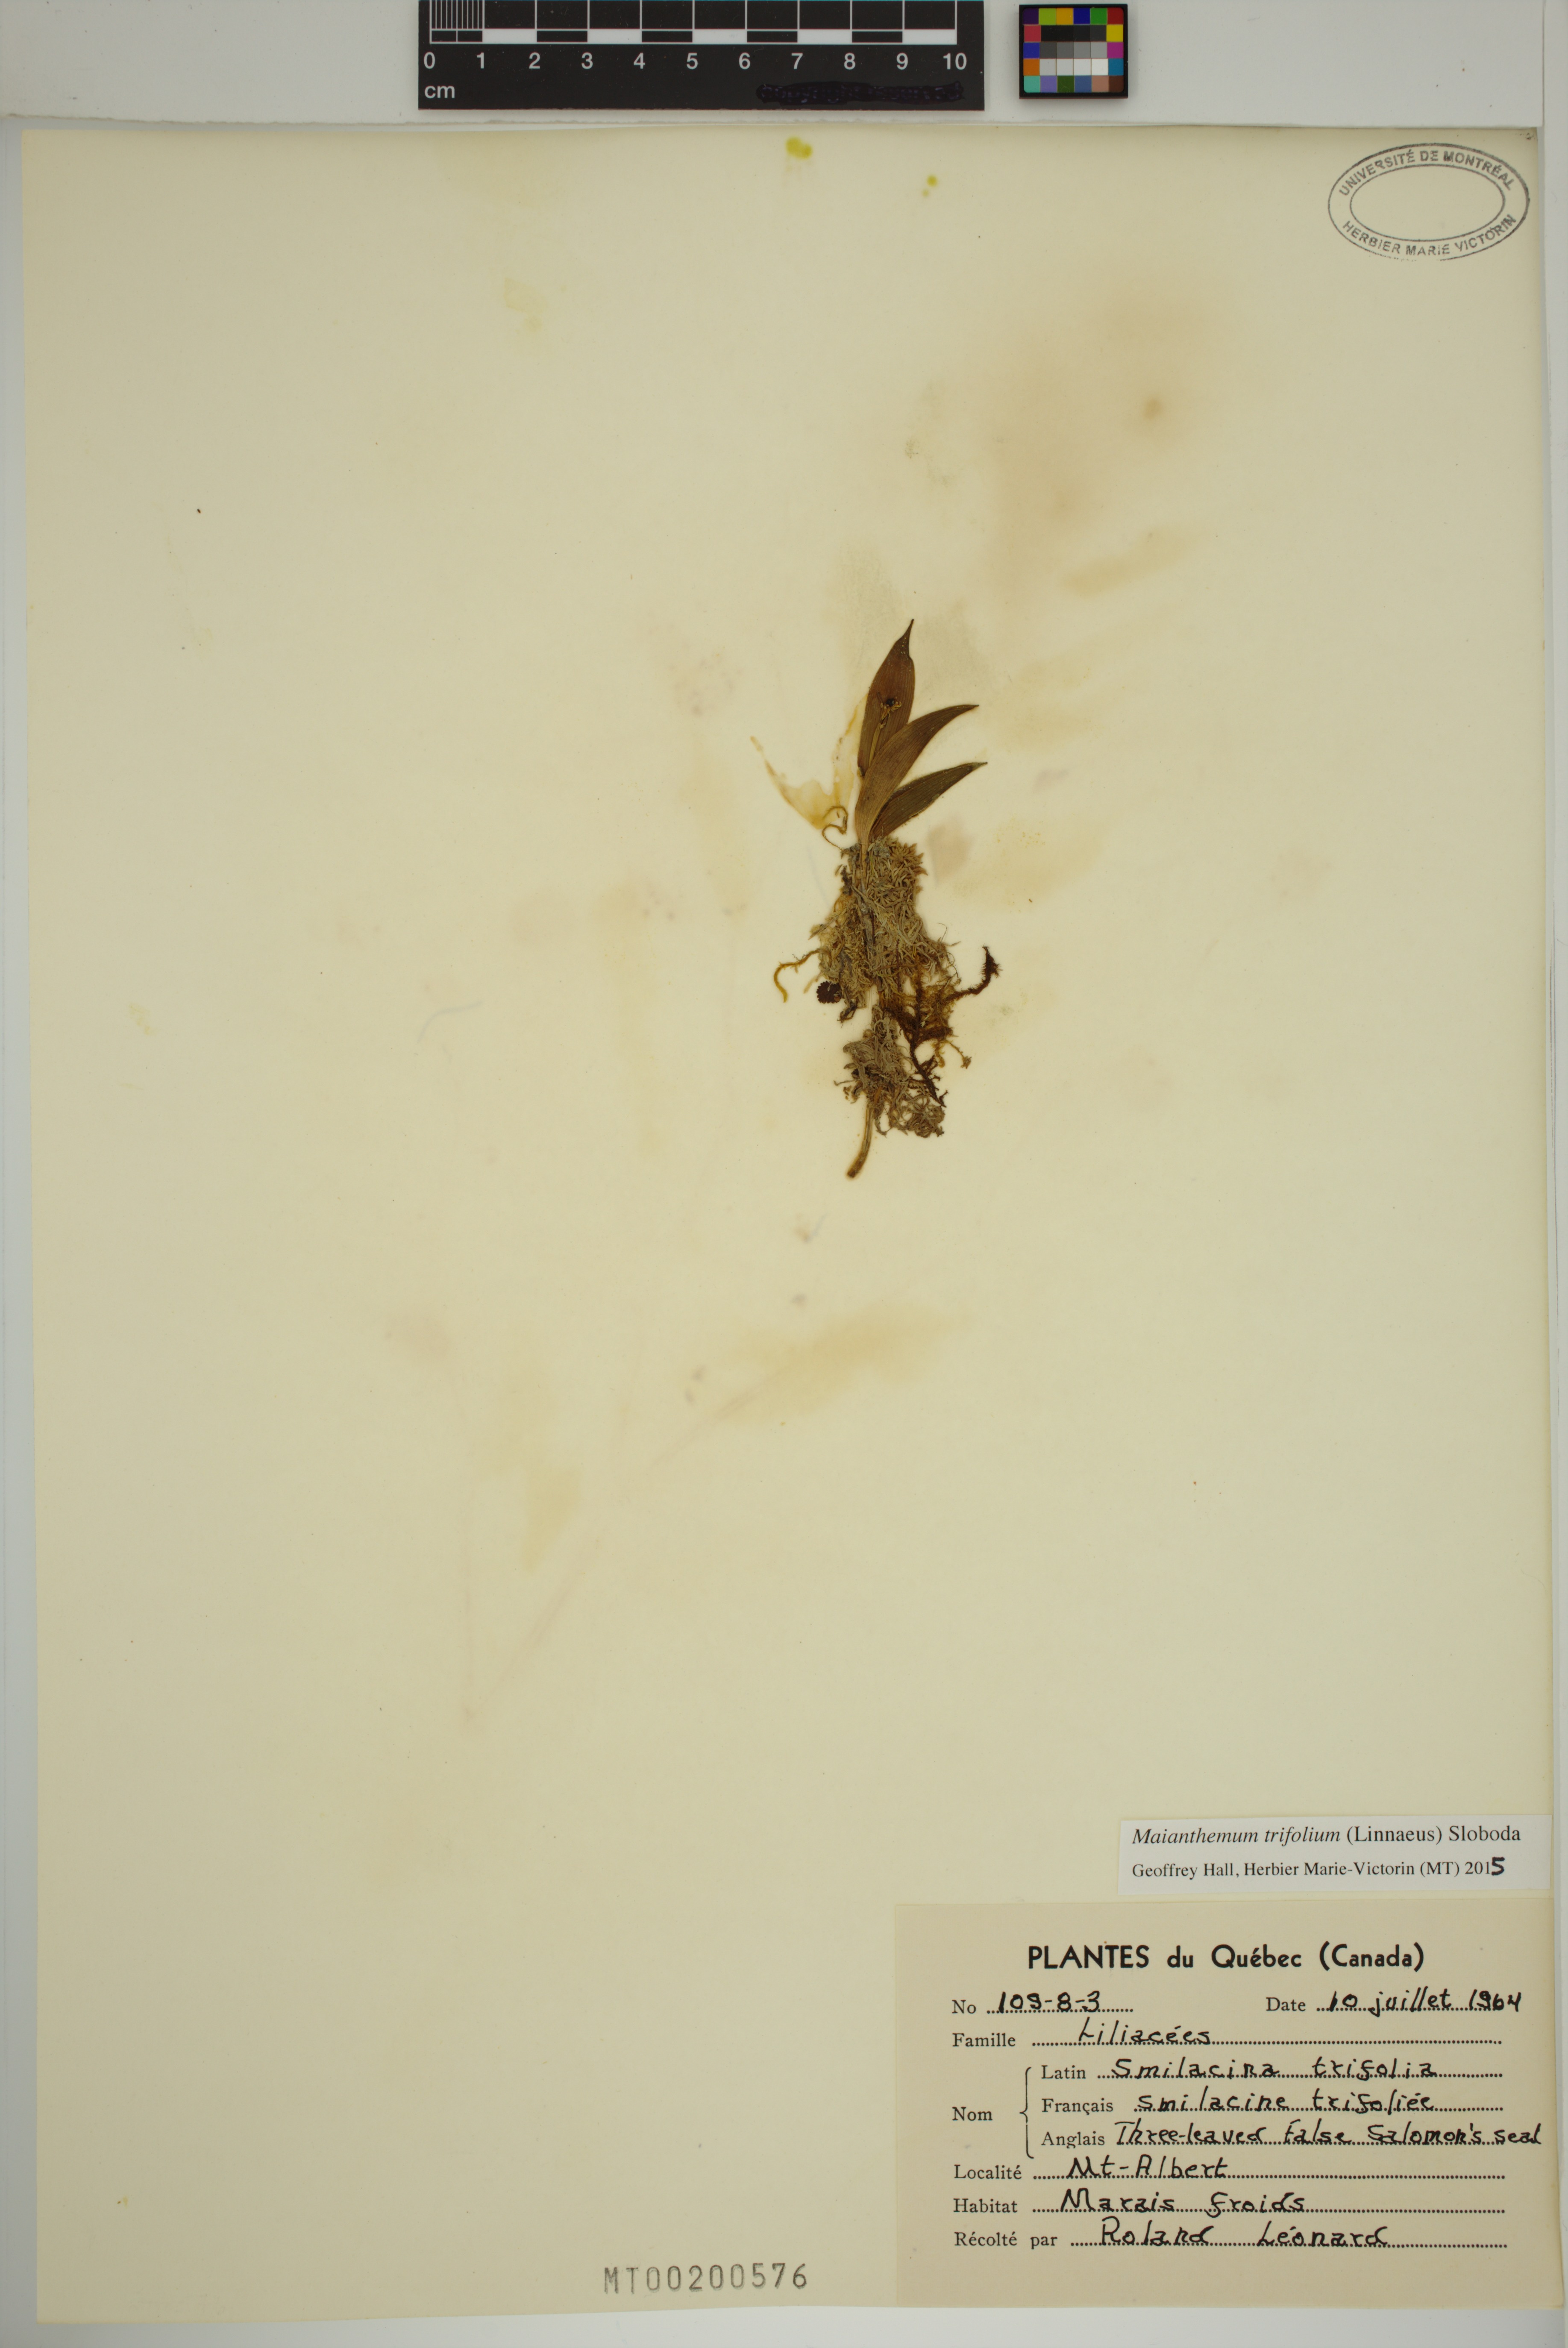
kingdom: Plantae
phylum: Tracheophyta
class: Liliopsida
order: Asparagales
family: Asparagaceae
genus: Maianthemum
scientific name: Maianthemum trifolium
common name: Swamp false solomon's seal
